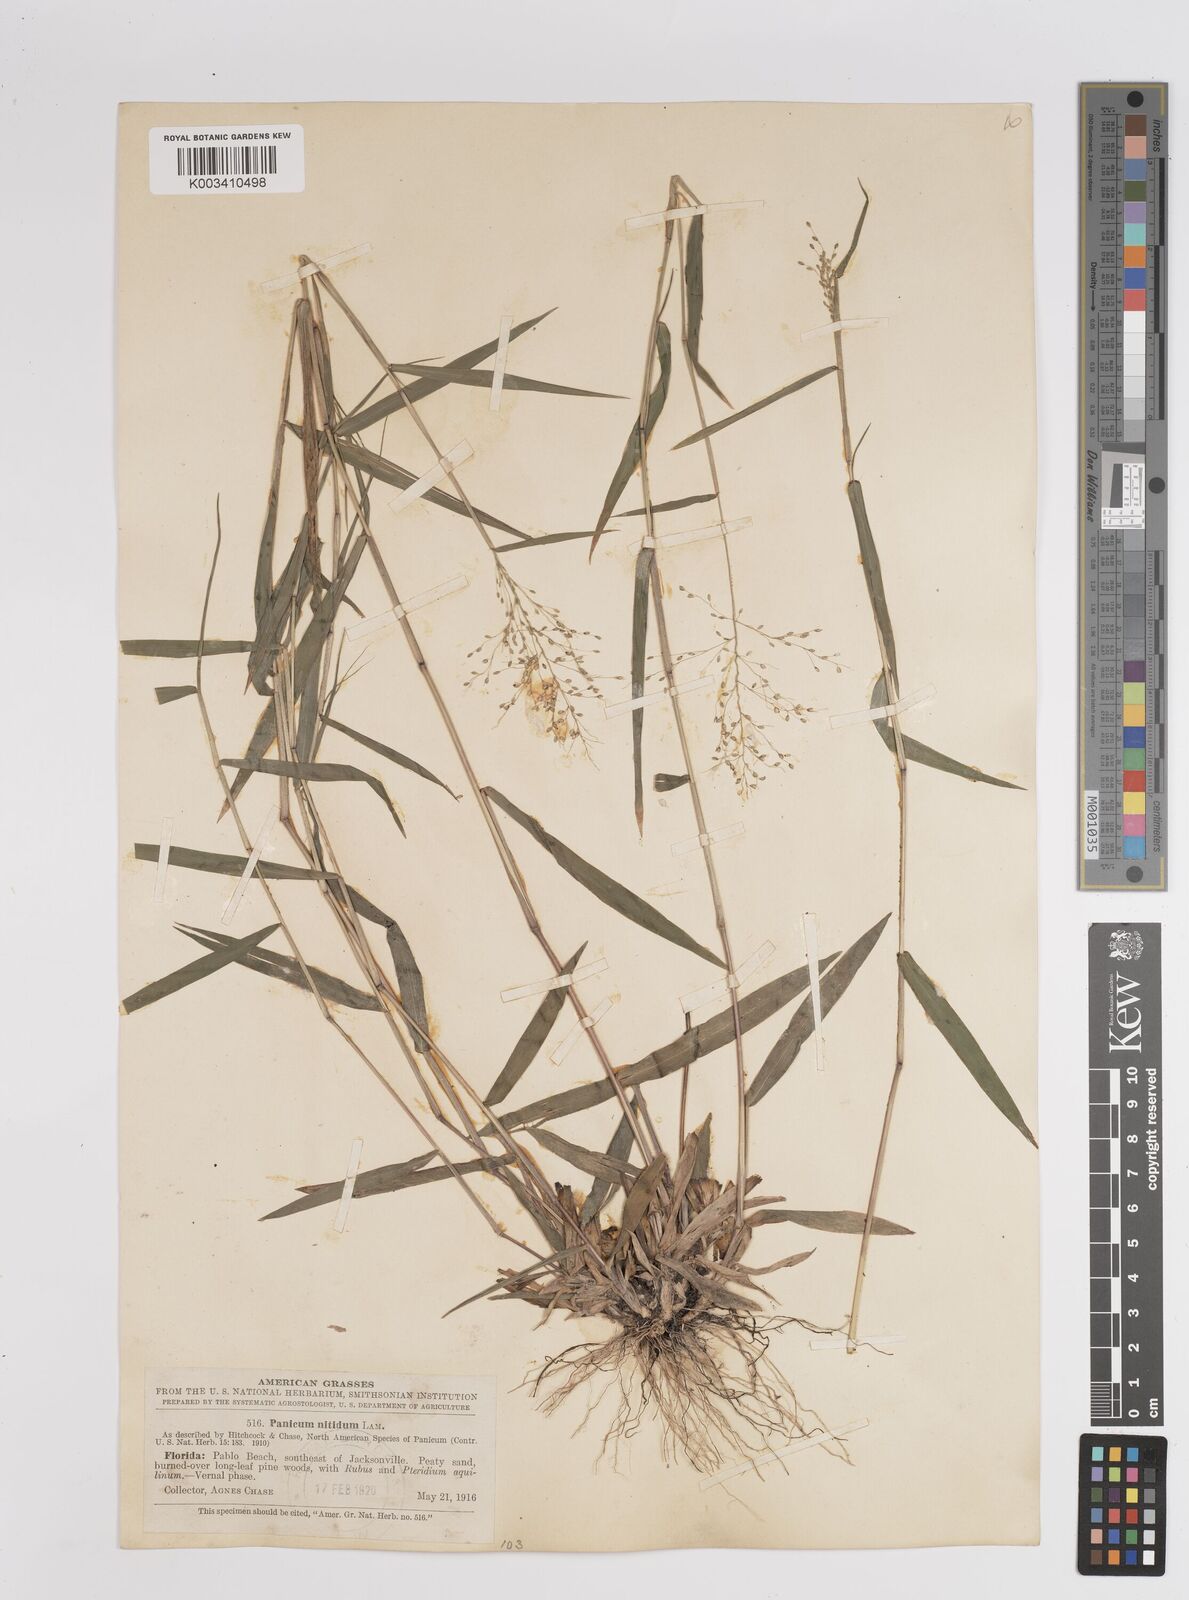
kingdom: Plantae
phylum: Tracheophyta
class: Liliopsida
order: Poales
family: Poaceae
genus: Dichanthelium
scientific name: Dichanthelium polyanthes
